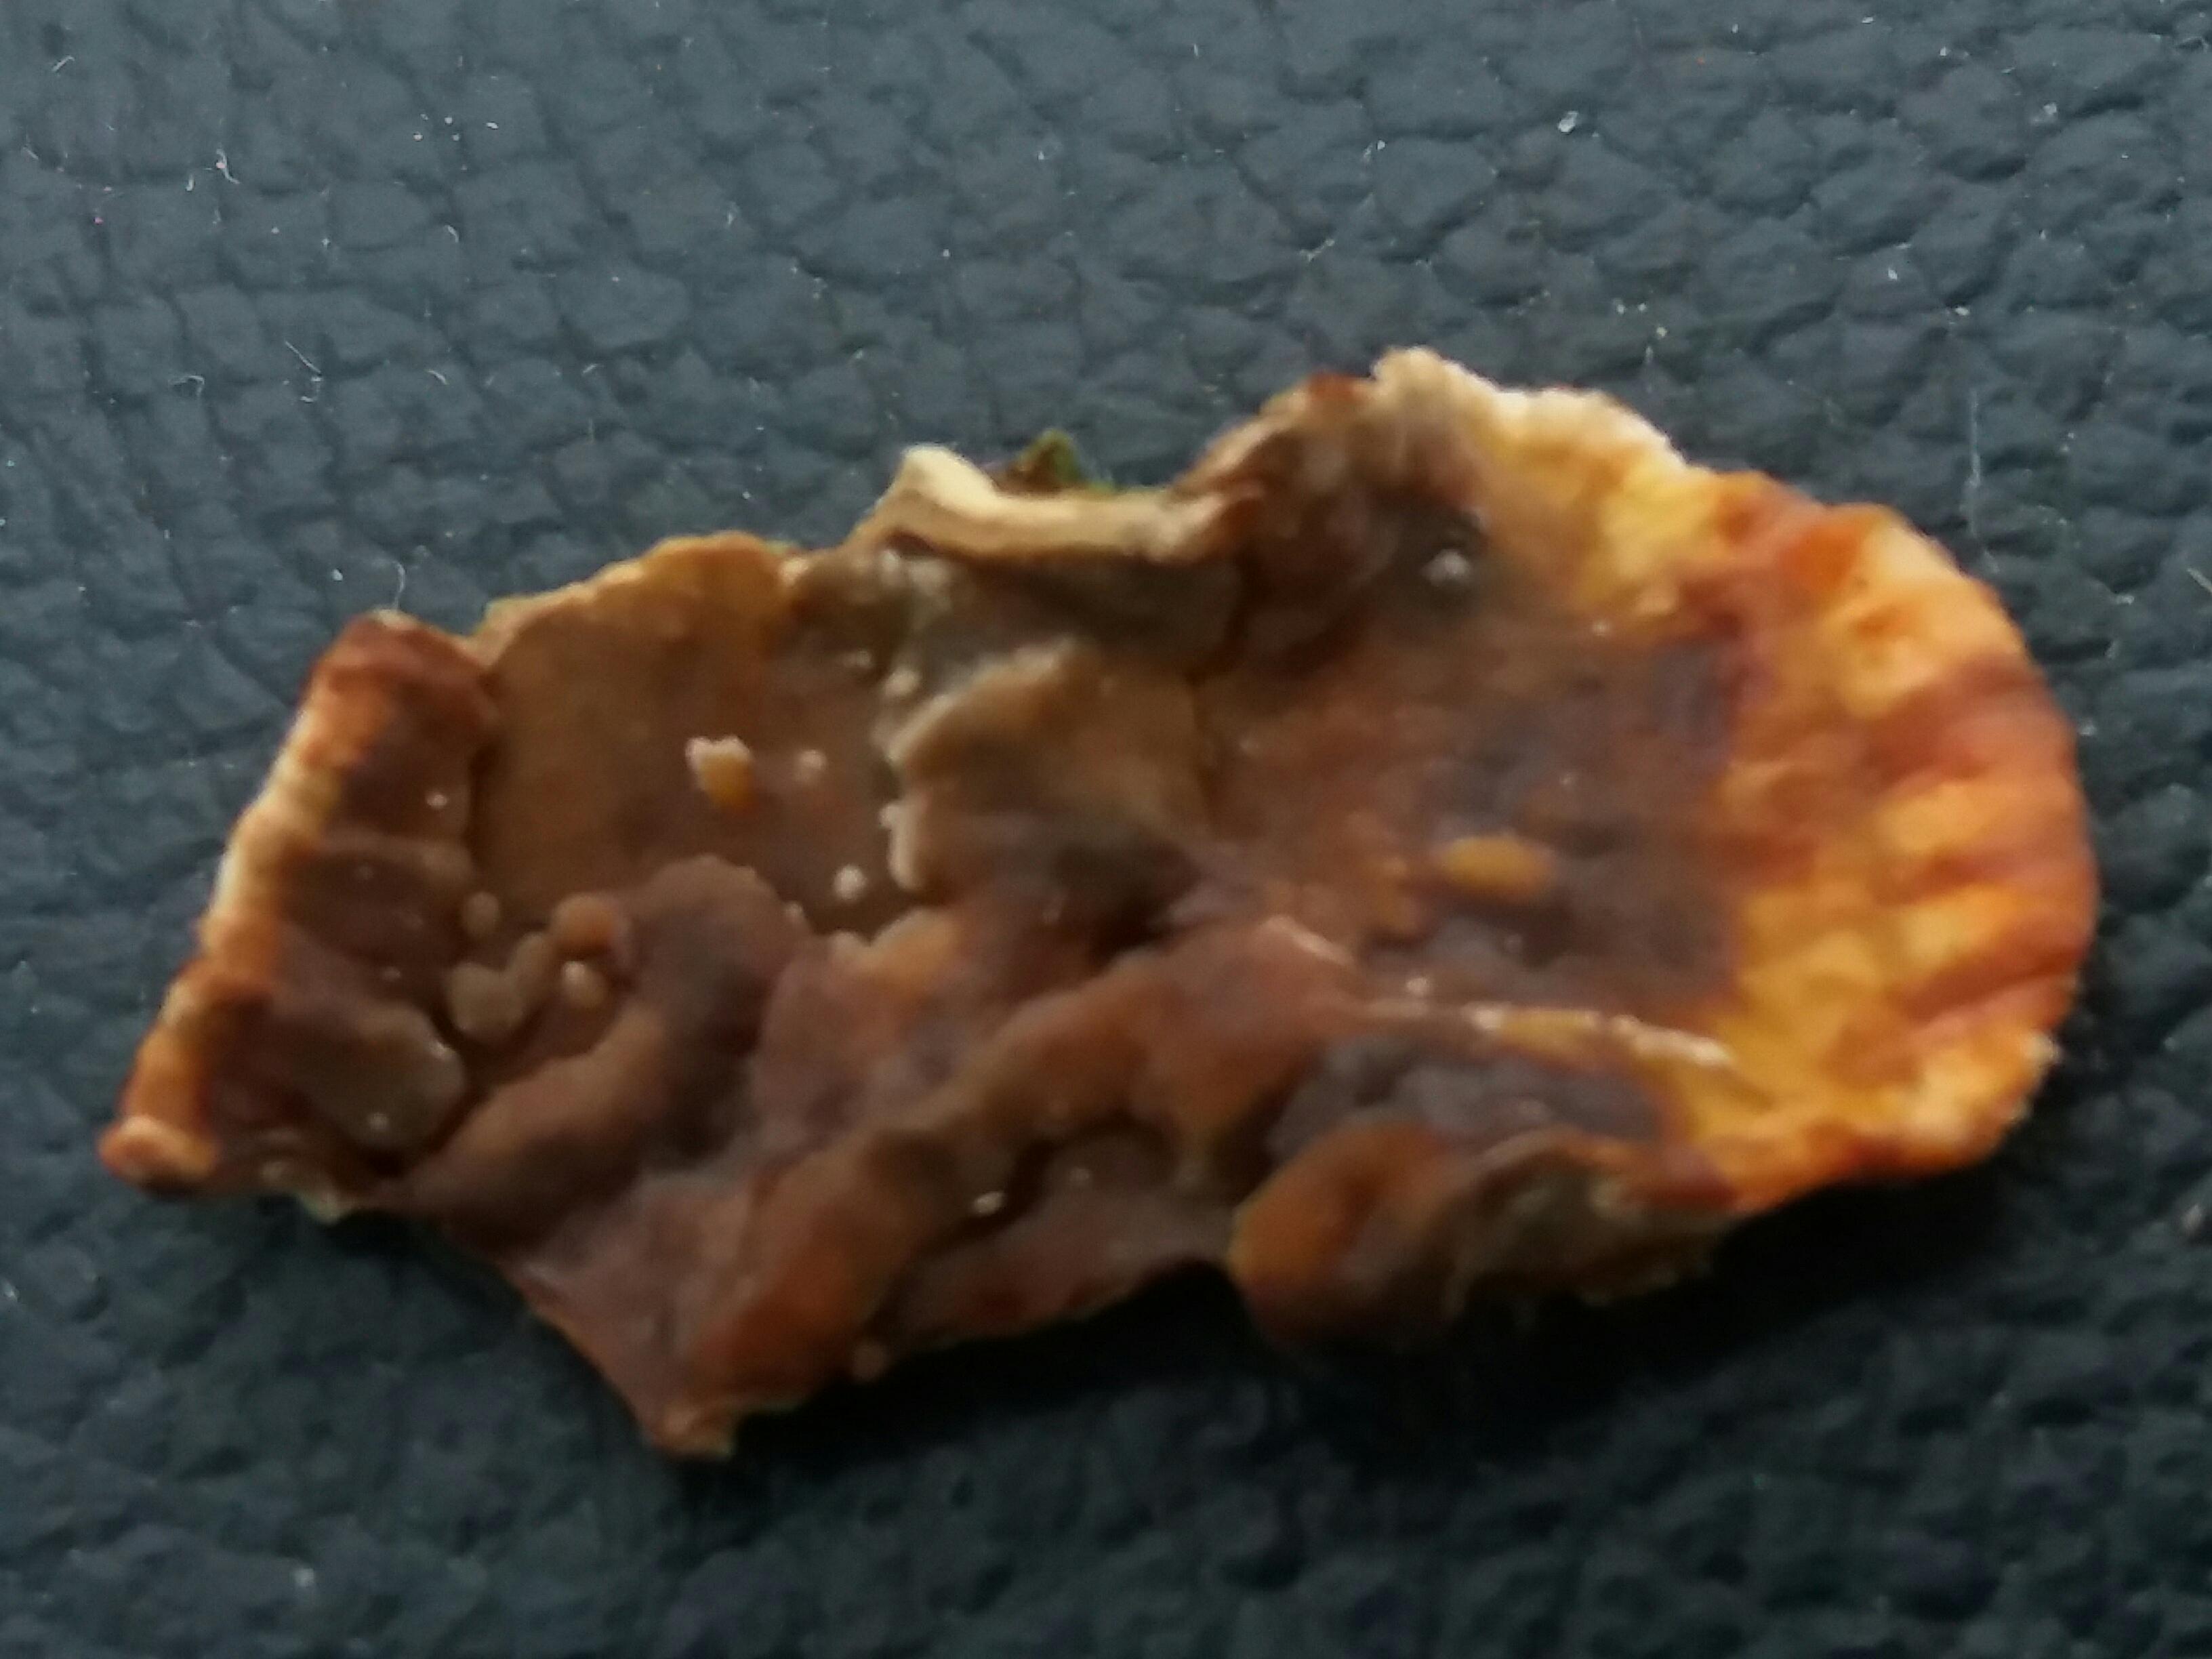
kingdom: Fungi
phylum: Basidiomycota
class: Agaricomycetes
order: Russulales
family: Stereaceae
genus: Stereum
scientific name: Stereum sanguinolentum
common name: blødende lædersvamp
